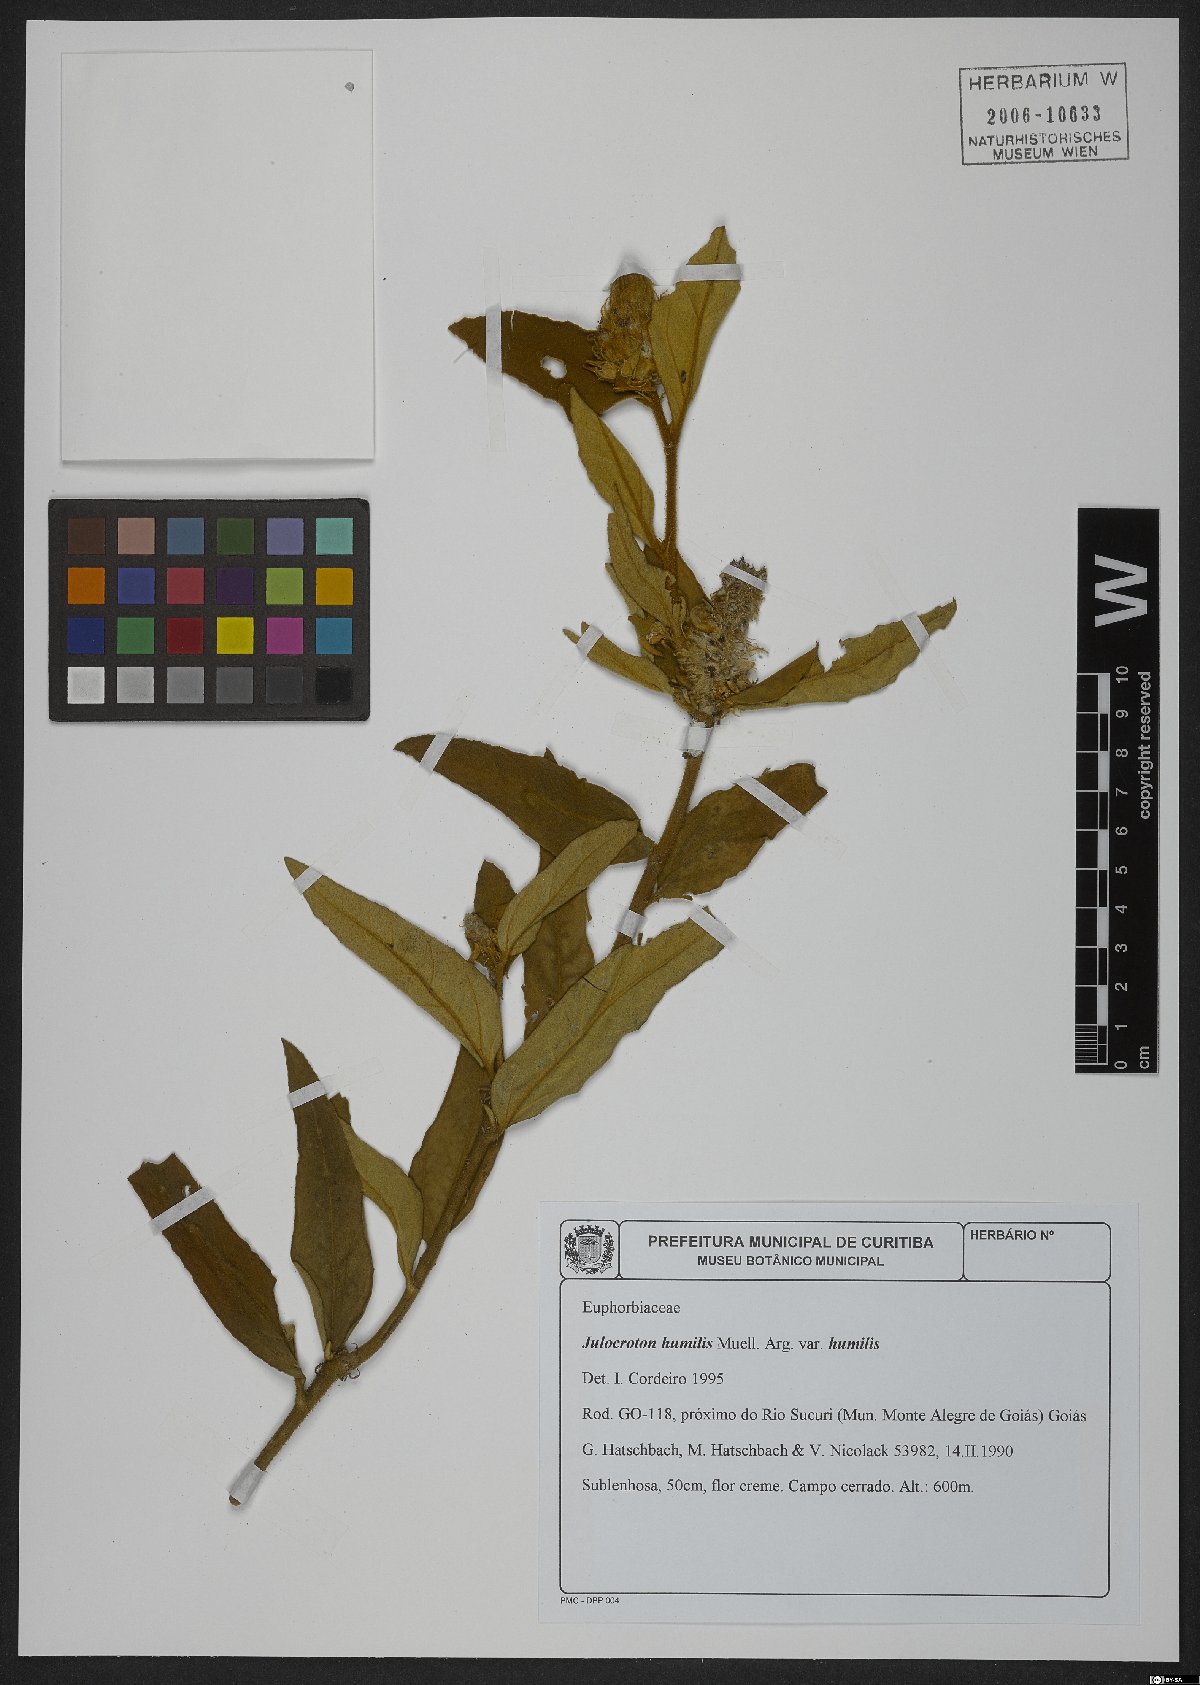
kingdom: Plantae
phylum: Tracheophyta
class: Magnoliopsida
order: Malpighiales
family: Euphorbiaceae
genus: Croton
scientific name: Croton solanaceus
